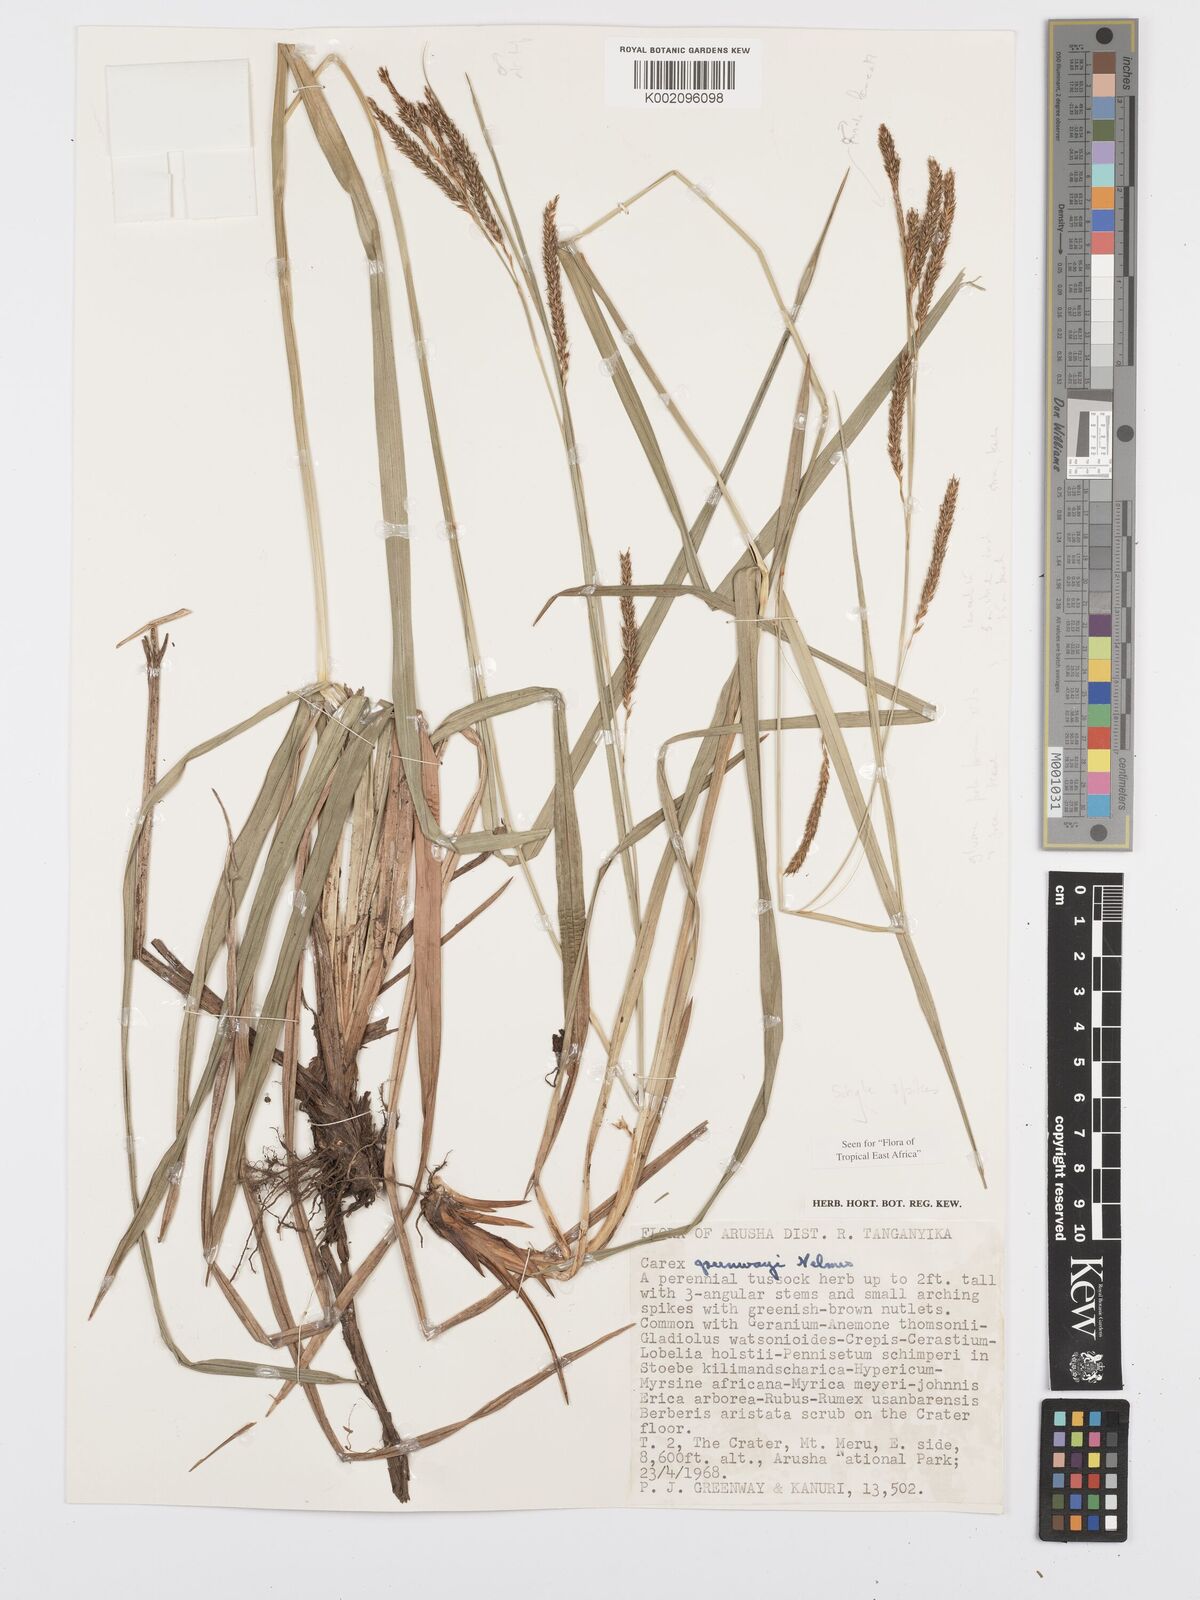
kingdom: Plantae
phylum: Tracheophyta
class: Liliopsida
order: Poales
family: Cyperaceae
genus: Carex
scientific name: Carex petitiana
